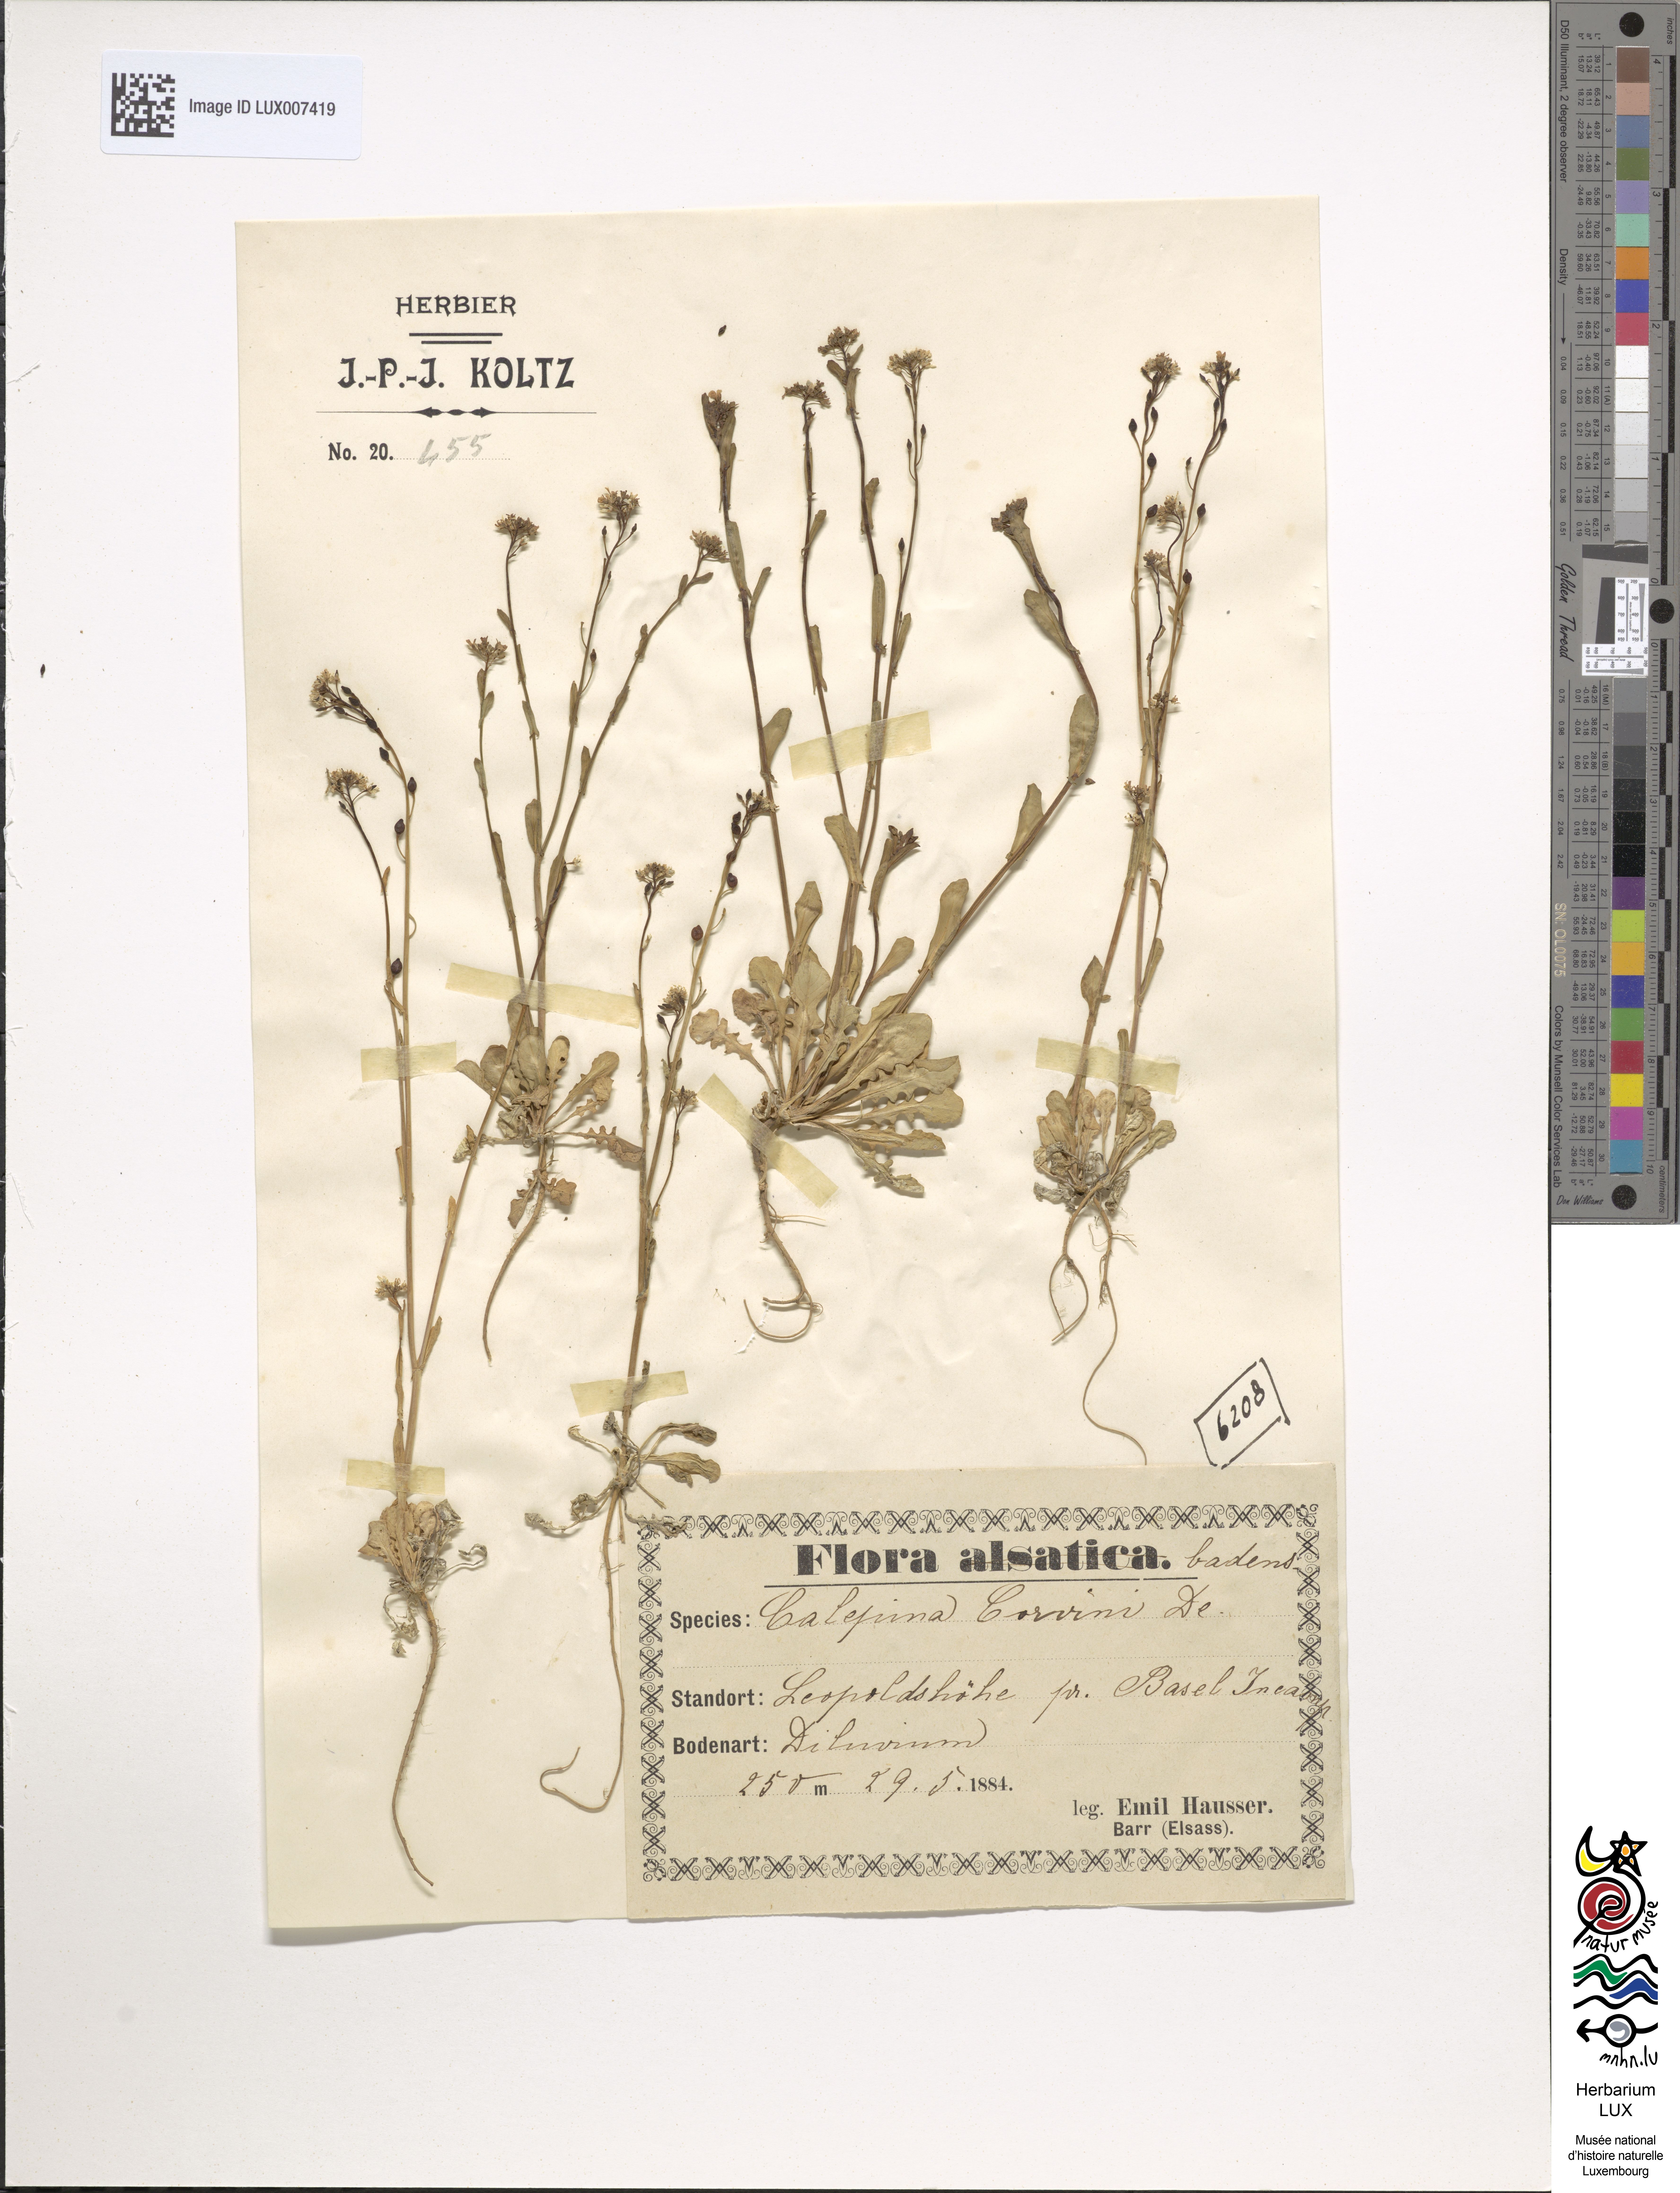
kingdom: Plantae
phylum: Tracheophyta
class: Magnoliopsida
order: Brassicales
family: Brassicaceae
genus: Calepina
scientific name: Calepina irregularis
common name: White ballmustard
